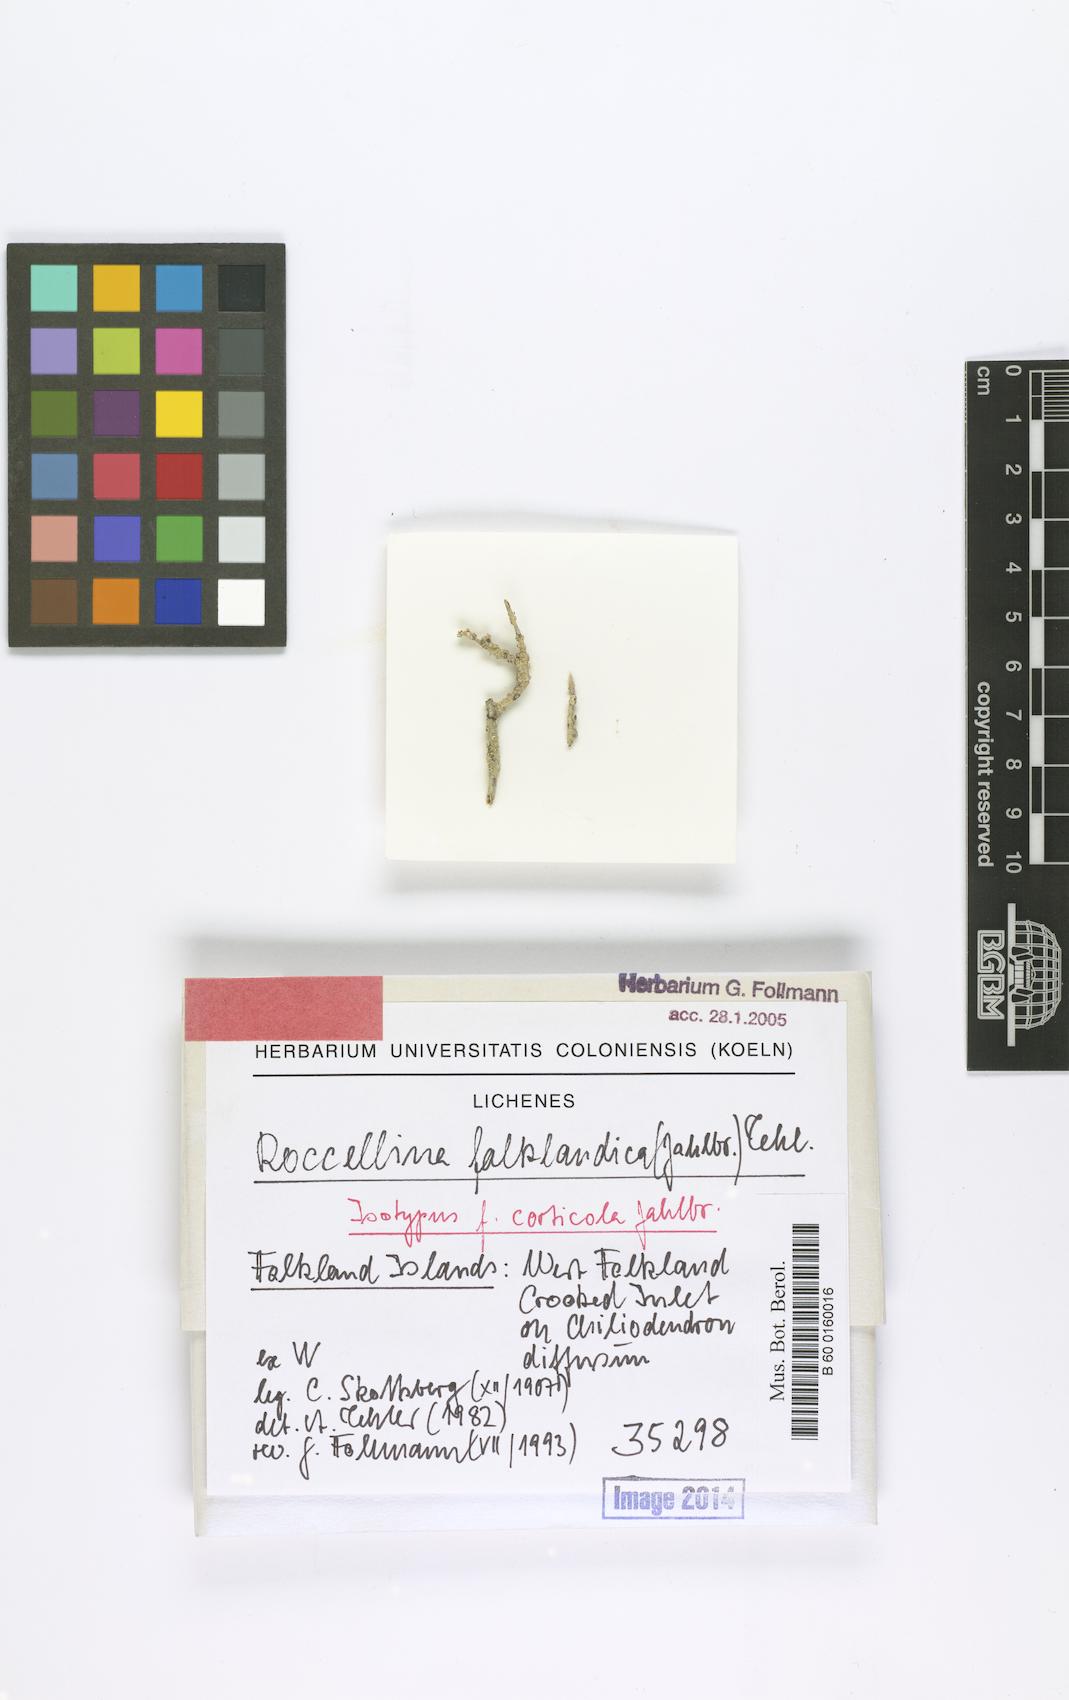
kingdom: Fungi
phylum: Ascomycota
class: Arthoniomycetes
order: Arthoniales
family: Roccellaceae
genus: Roccellina
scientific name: Roccellina falklandica
